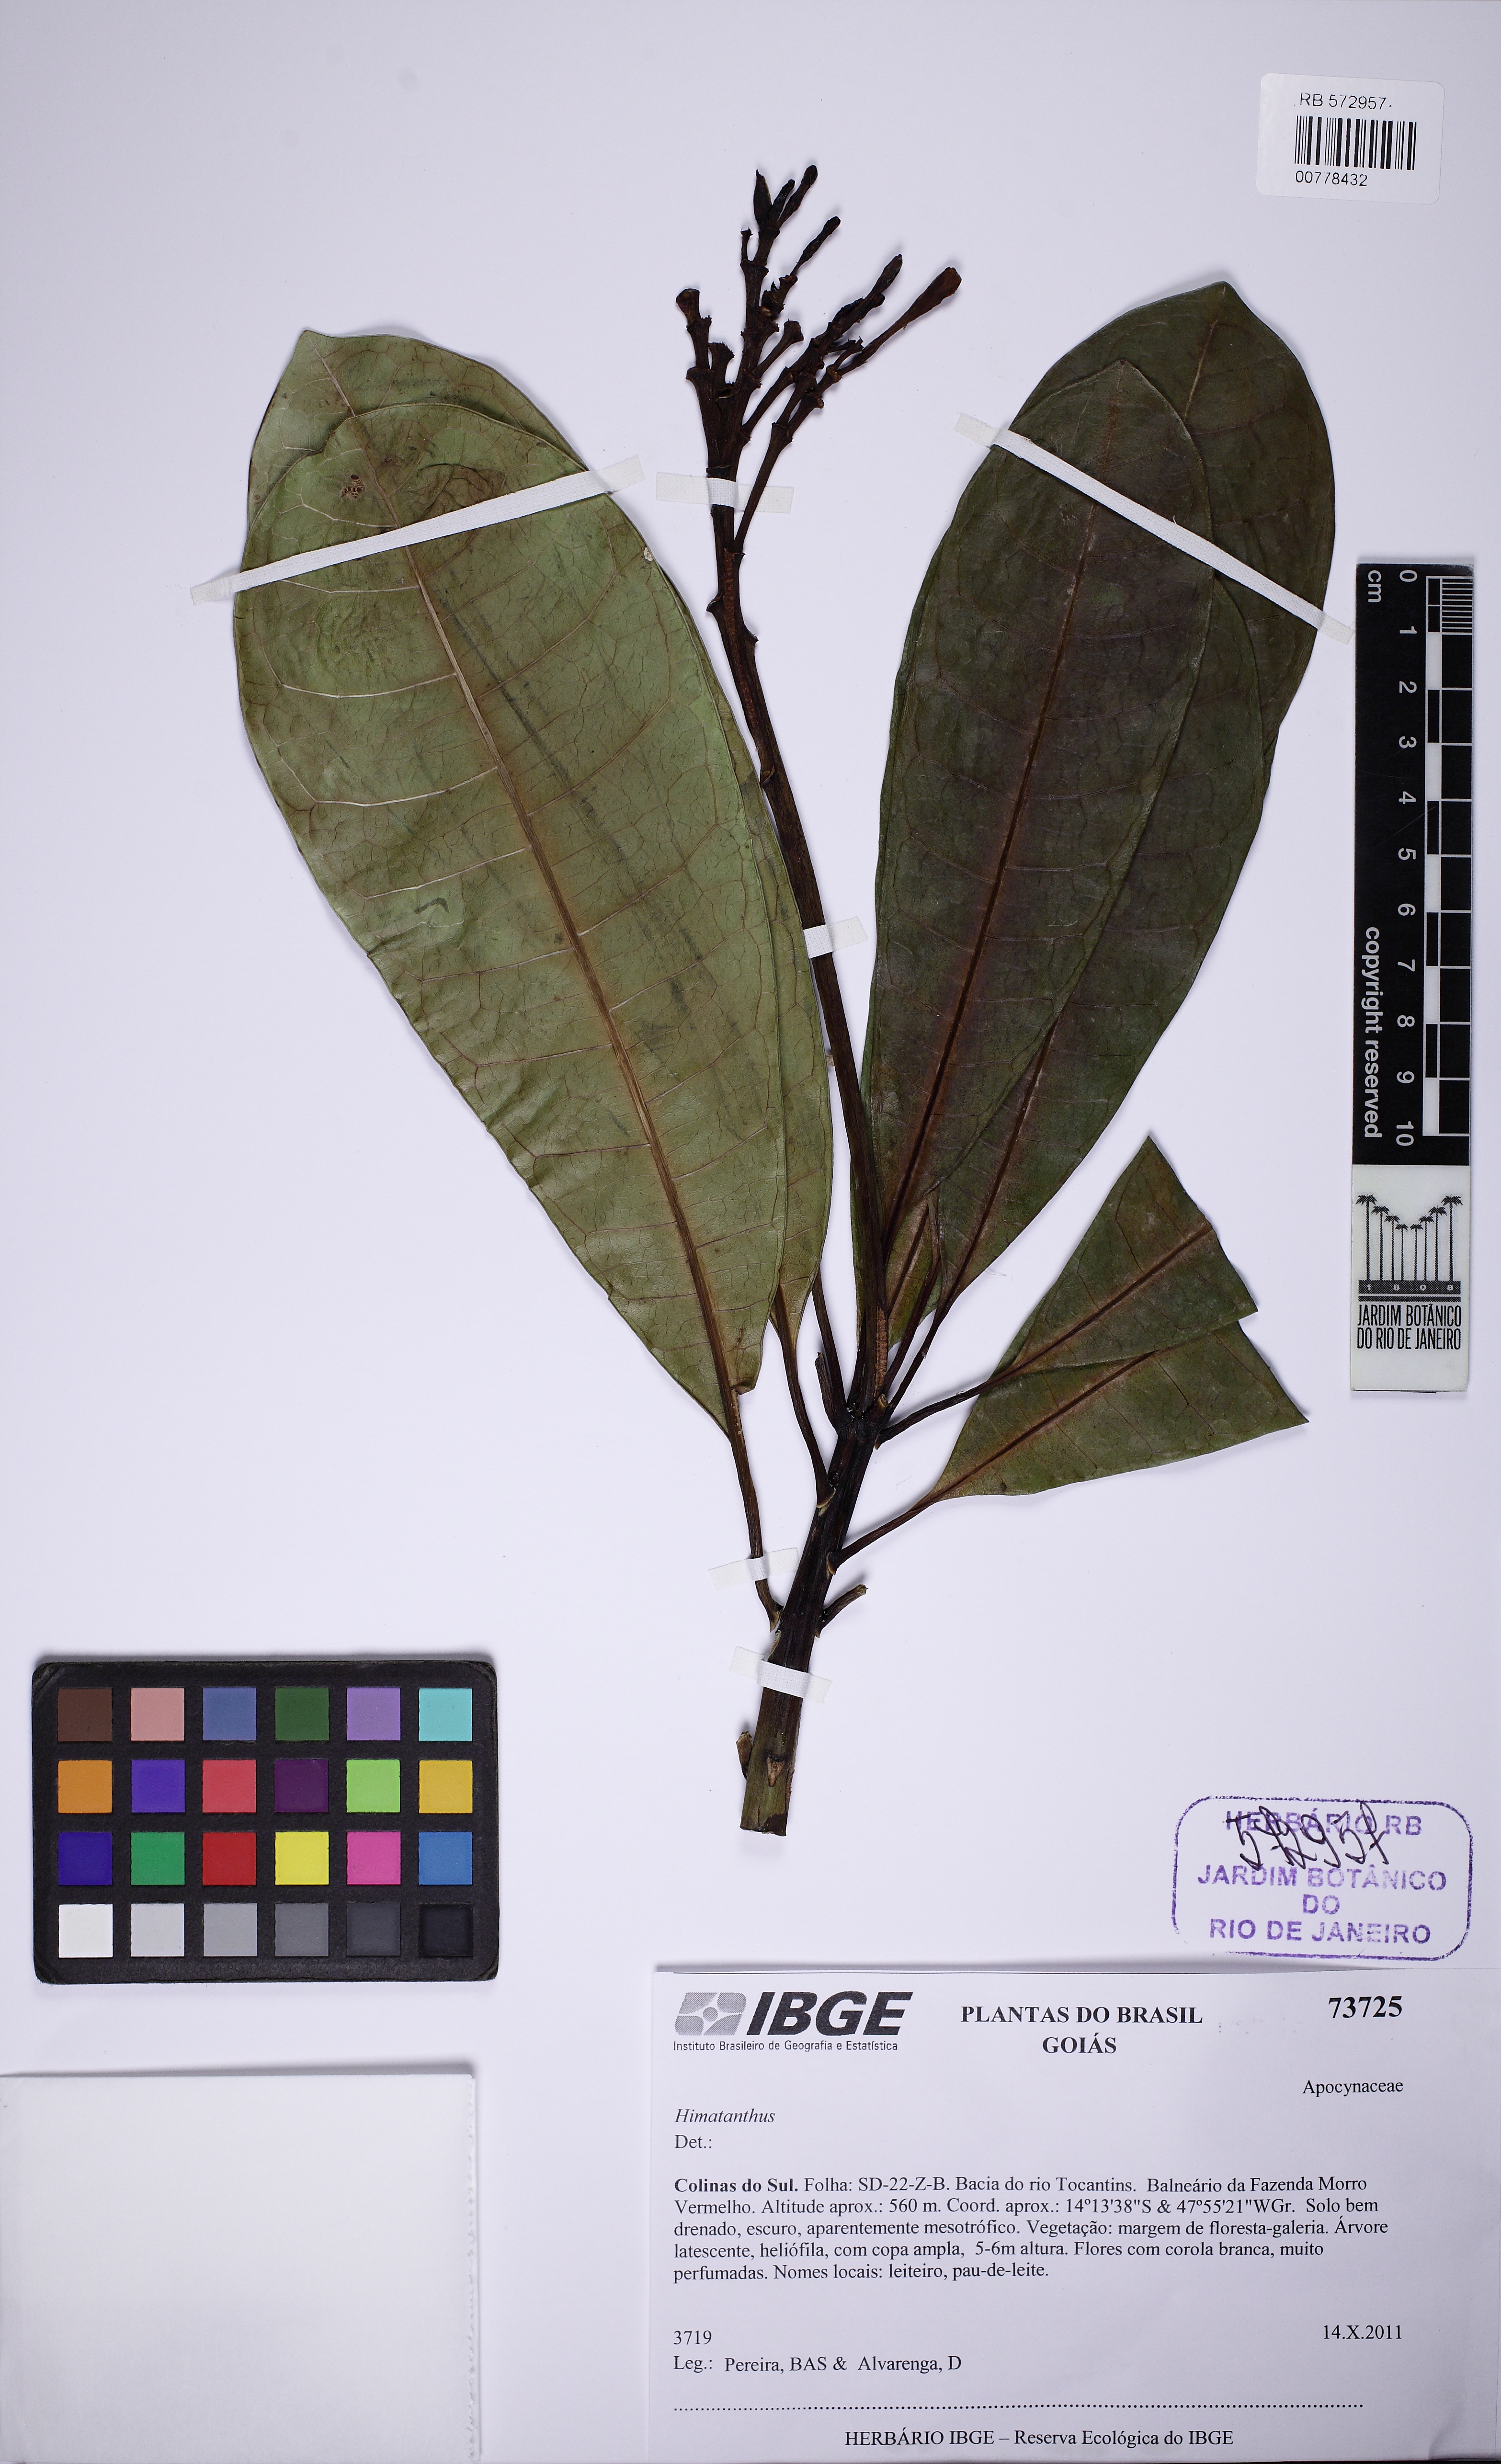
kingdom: Plantae
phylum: Tracheophyta
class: Magnoliopsida
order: Gentianales
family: Apocynaceae
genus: Himatanthus
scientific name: Himatanthus
